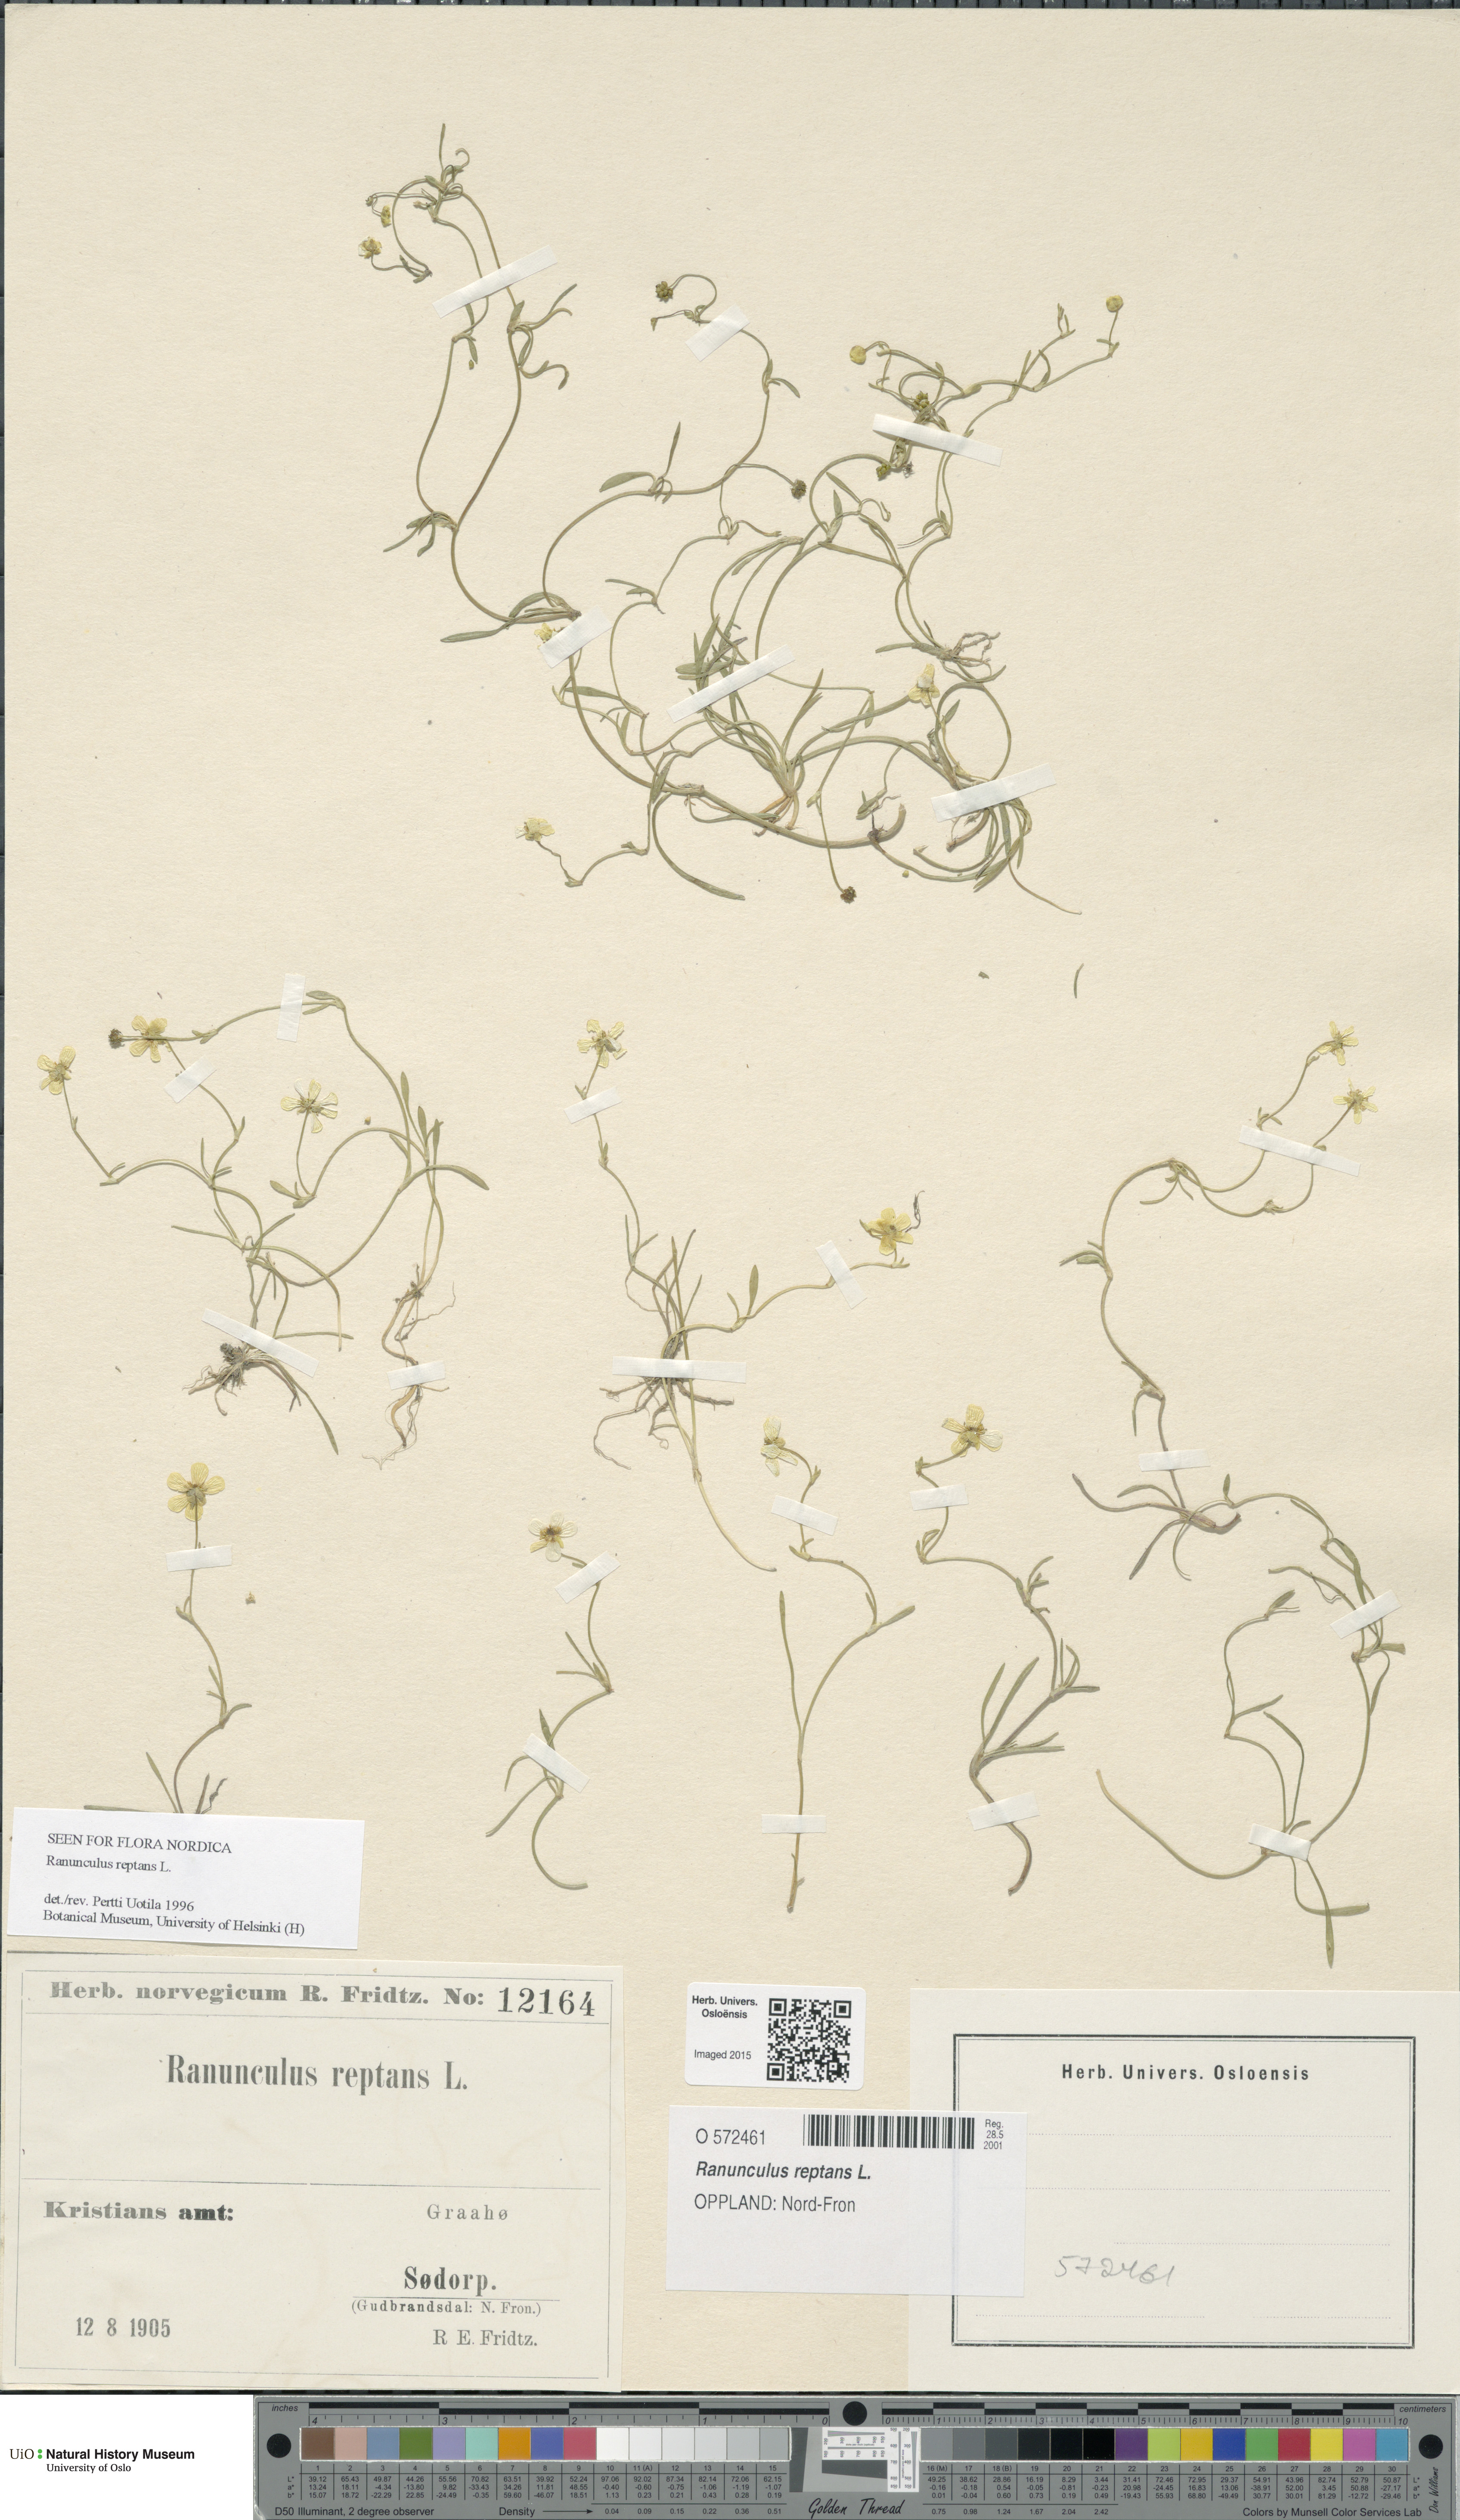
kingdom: Plantae
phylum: Tracheophyta
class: Magnoliopsida
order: Ranunculales
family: Ranunculaceae
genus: Ranunculus
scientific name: Ranunculus reptans
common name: Creeping spearwort
